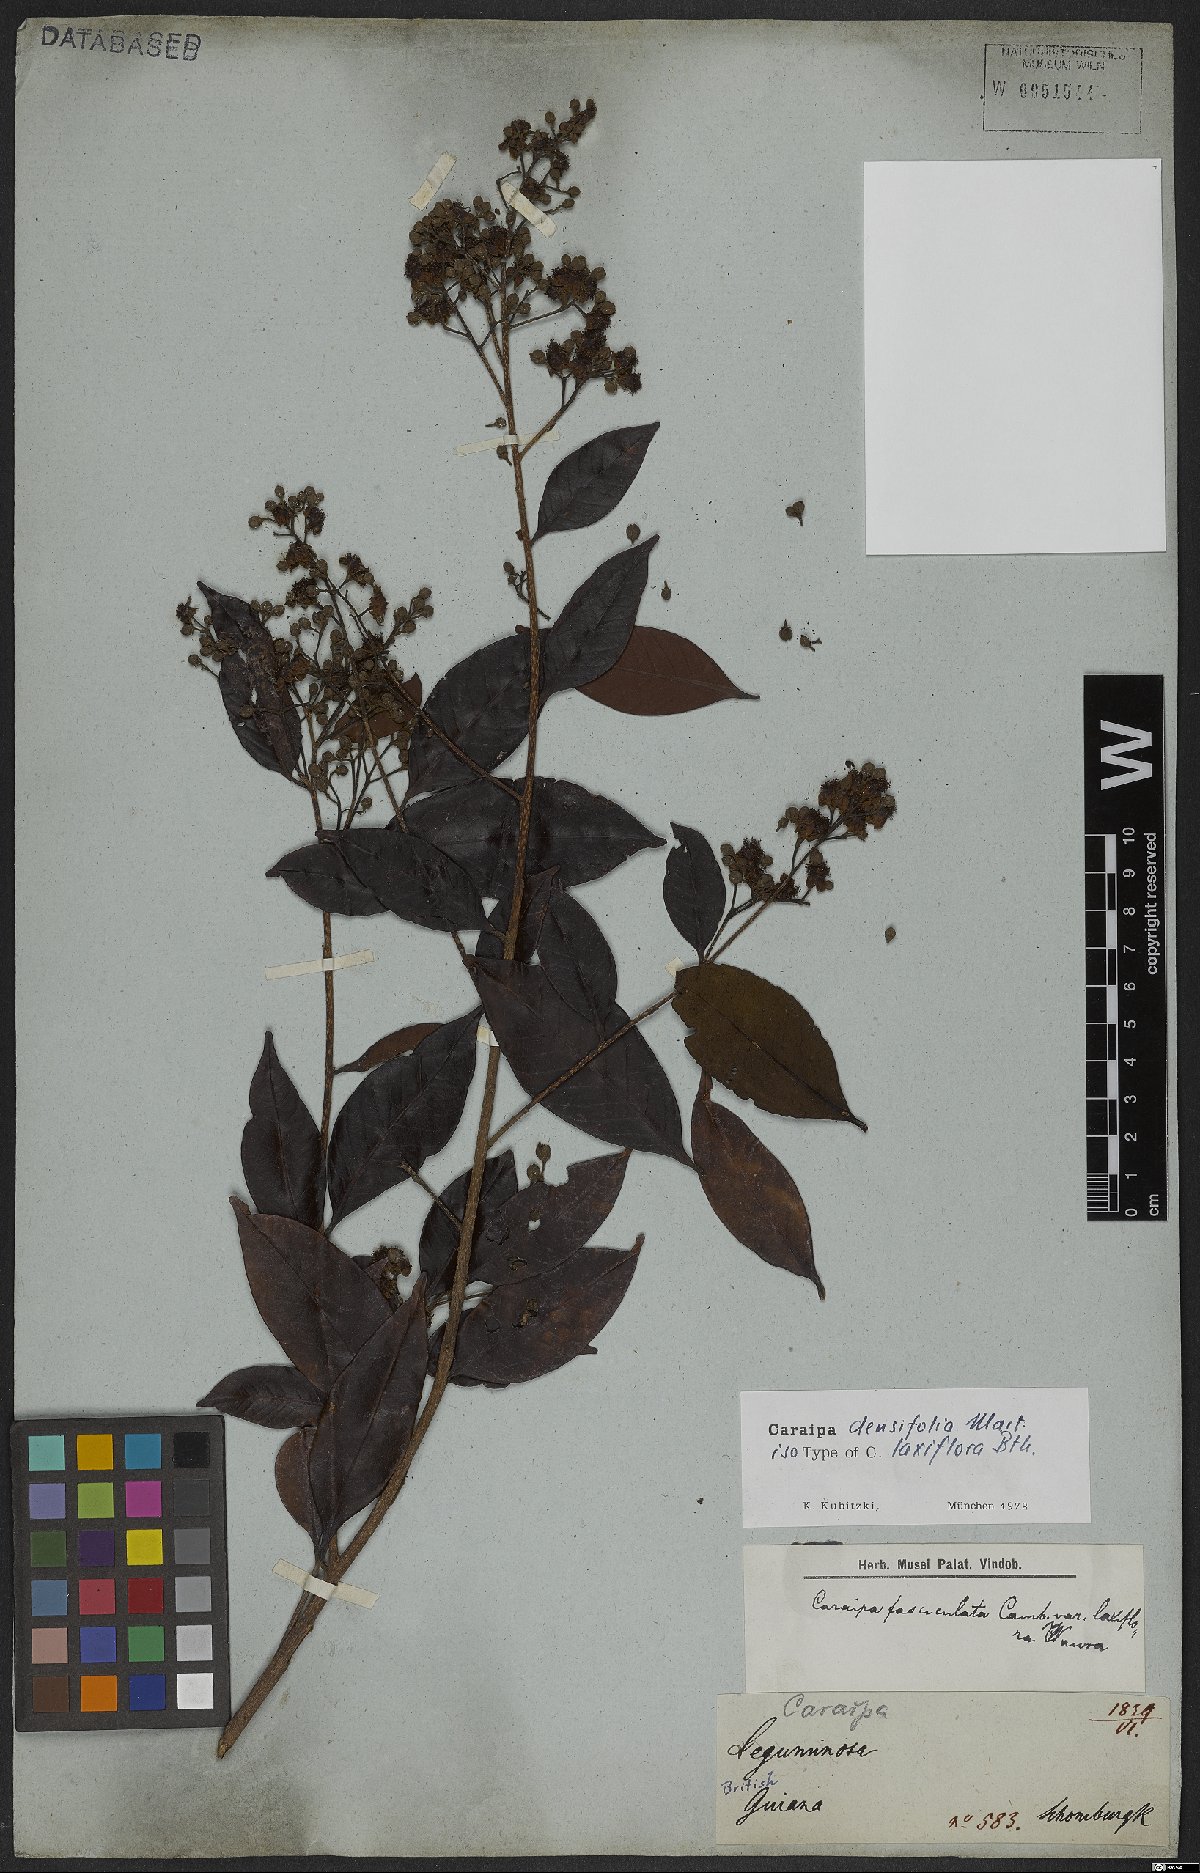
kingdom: Plantae
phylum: Tracheophyta
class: Magnoliopsida
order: Malpighiales
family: Calophyllaceae
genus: Caraipa
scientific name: Caraipa densifolia
